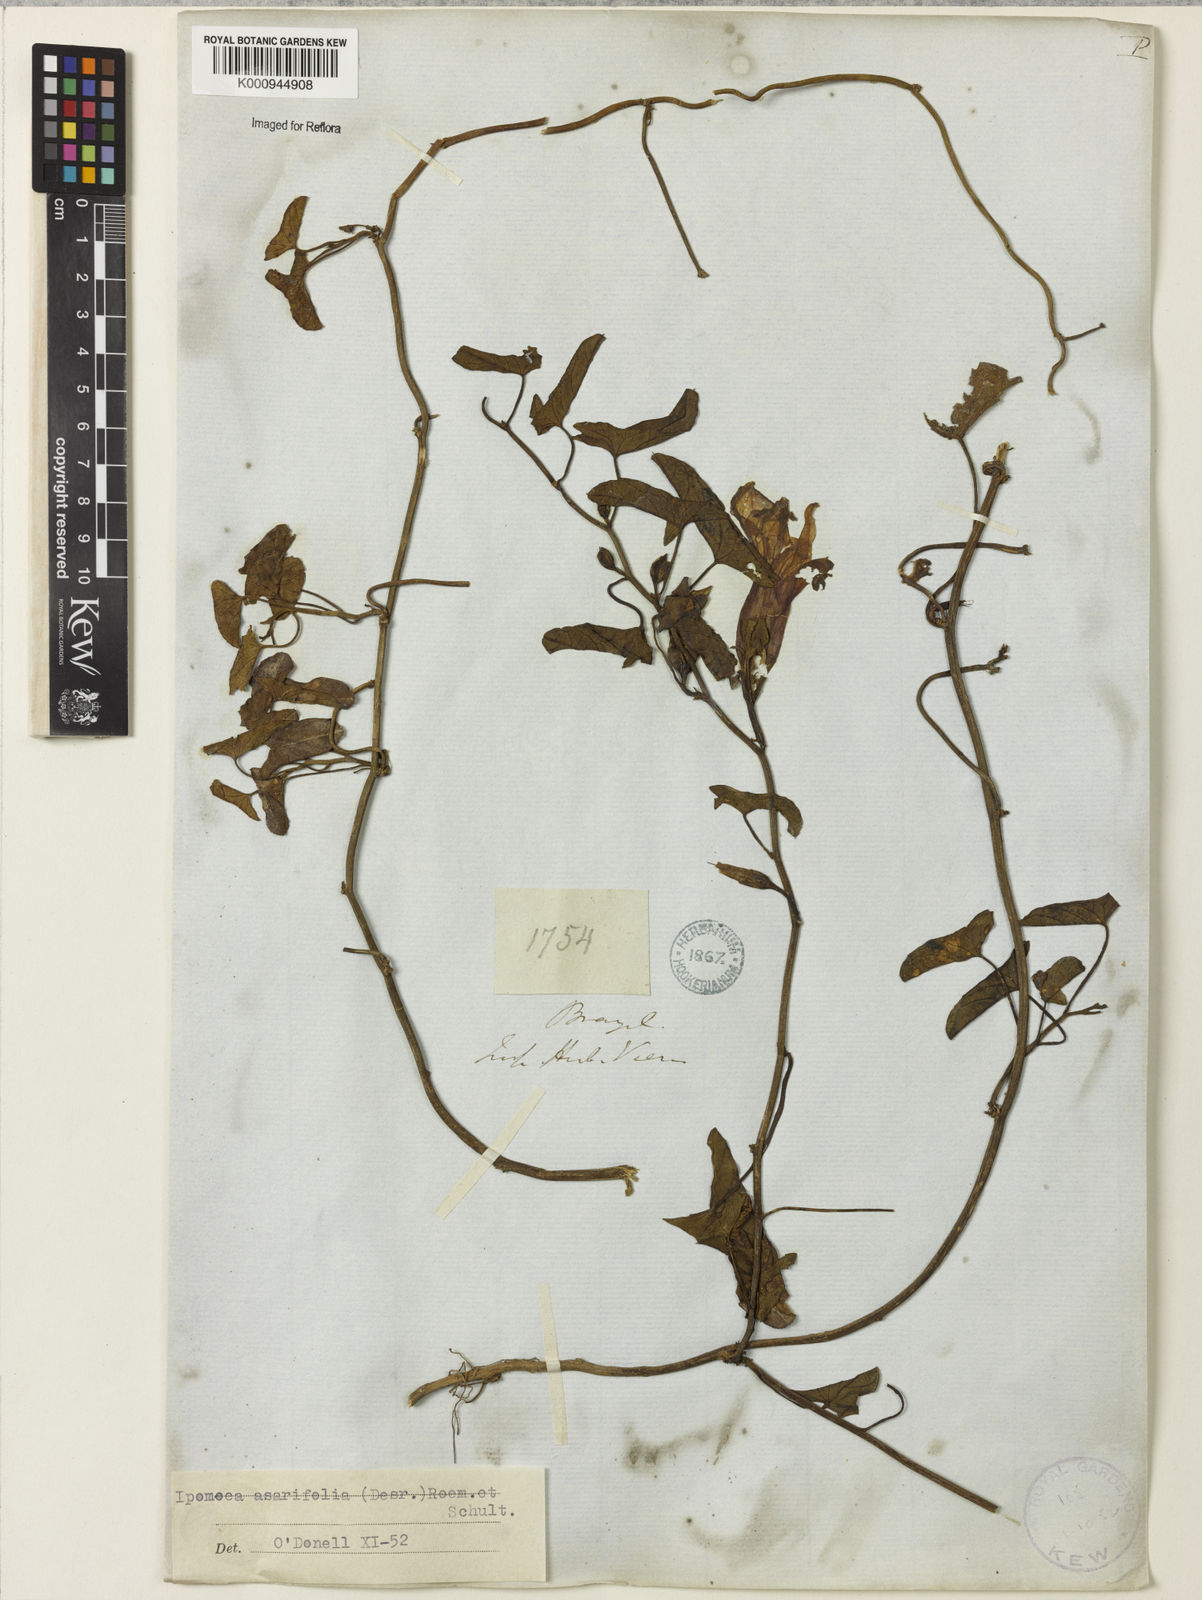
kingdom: Plantae
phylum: Tracheophyta
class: Magnoliopsida
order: Solanales
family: Convolvulaceae
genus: Ipomoea
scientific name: Ipomoea asarifolia
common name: Ginger-leaf morning-glory
